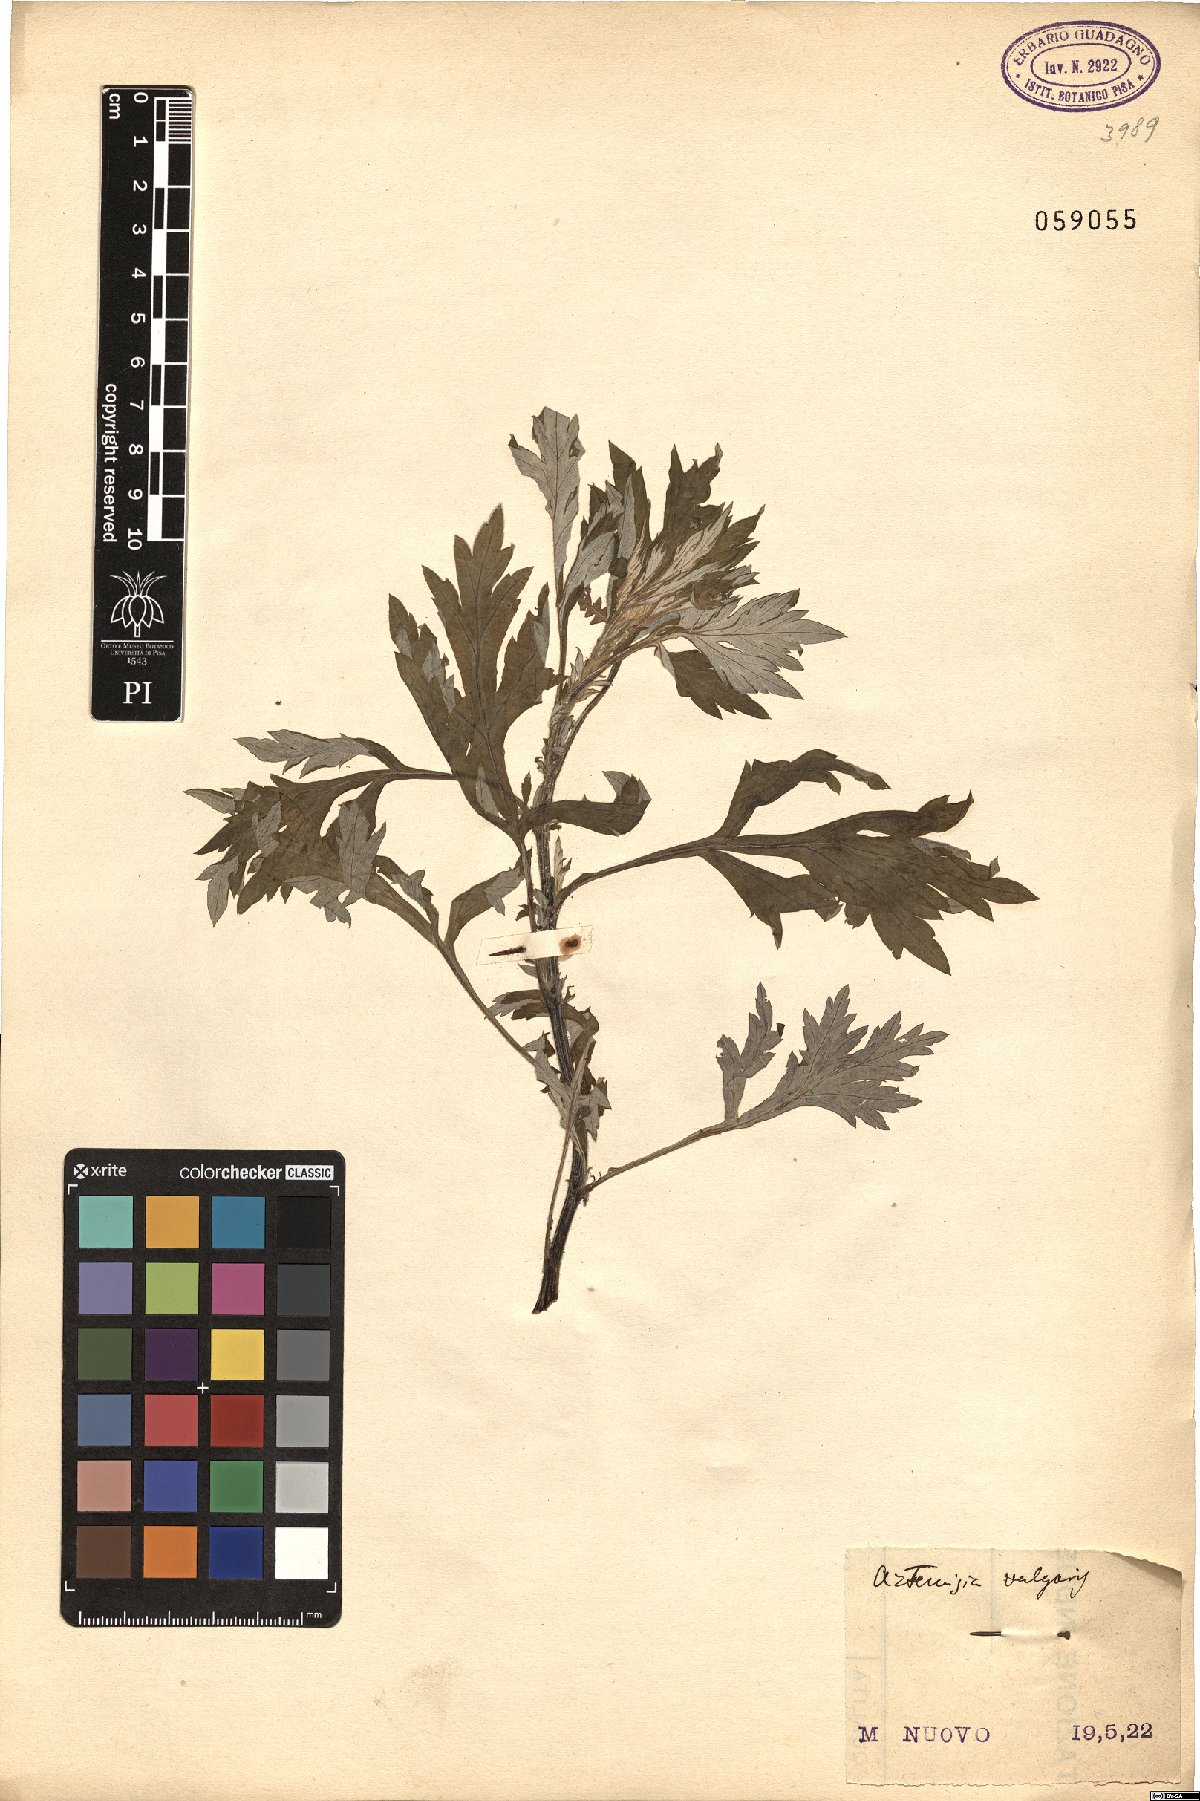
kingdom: Plantae
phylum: Tracheophyta
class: Magnoliopsida
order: Asterales
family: Asteraceae
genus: Artemisia
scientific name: Artemisia vulgaris
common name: Mugwort
